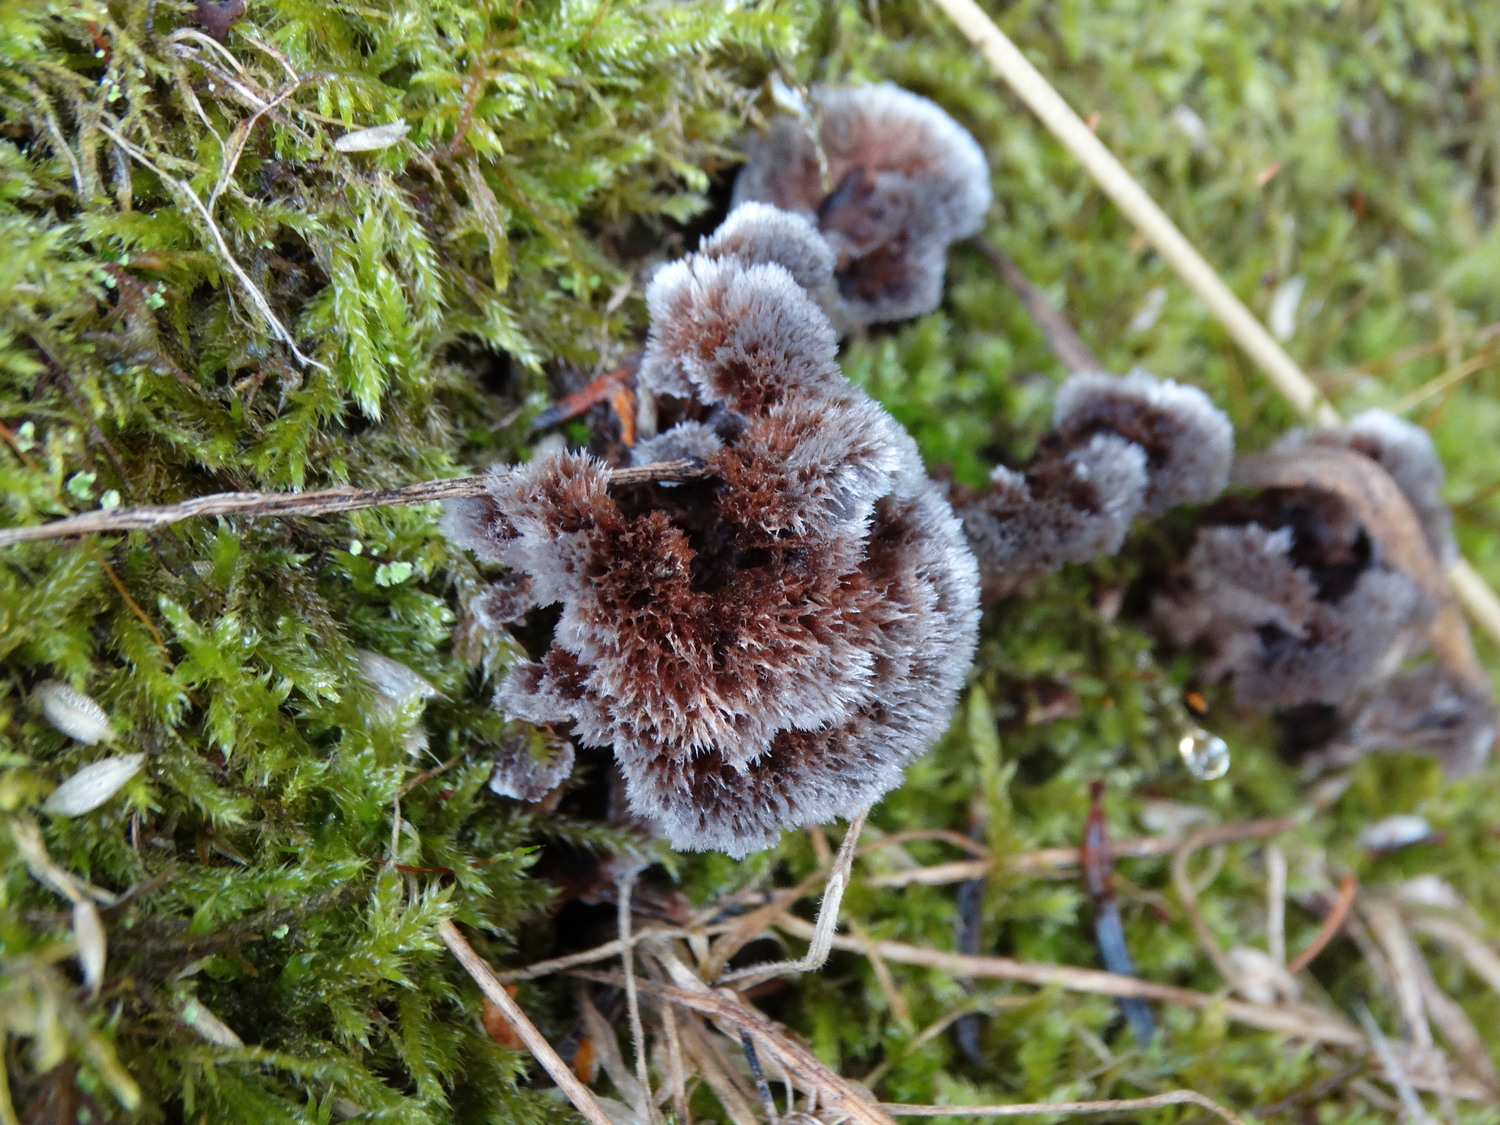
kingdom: Fungi
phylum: Basidiomycota
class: Agaricomycetes
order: Thelephorales
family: Thelephoraceae
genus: Thelephora
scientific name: Thelephora terrestris
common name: fliget frynsesvamp
